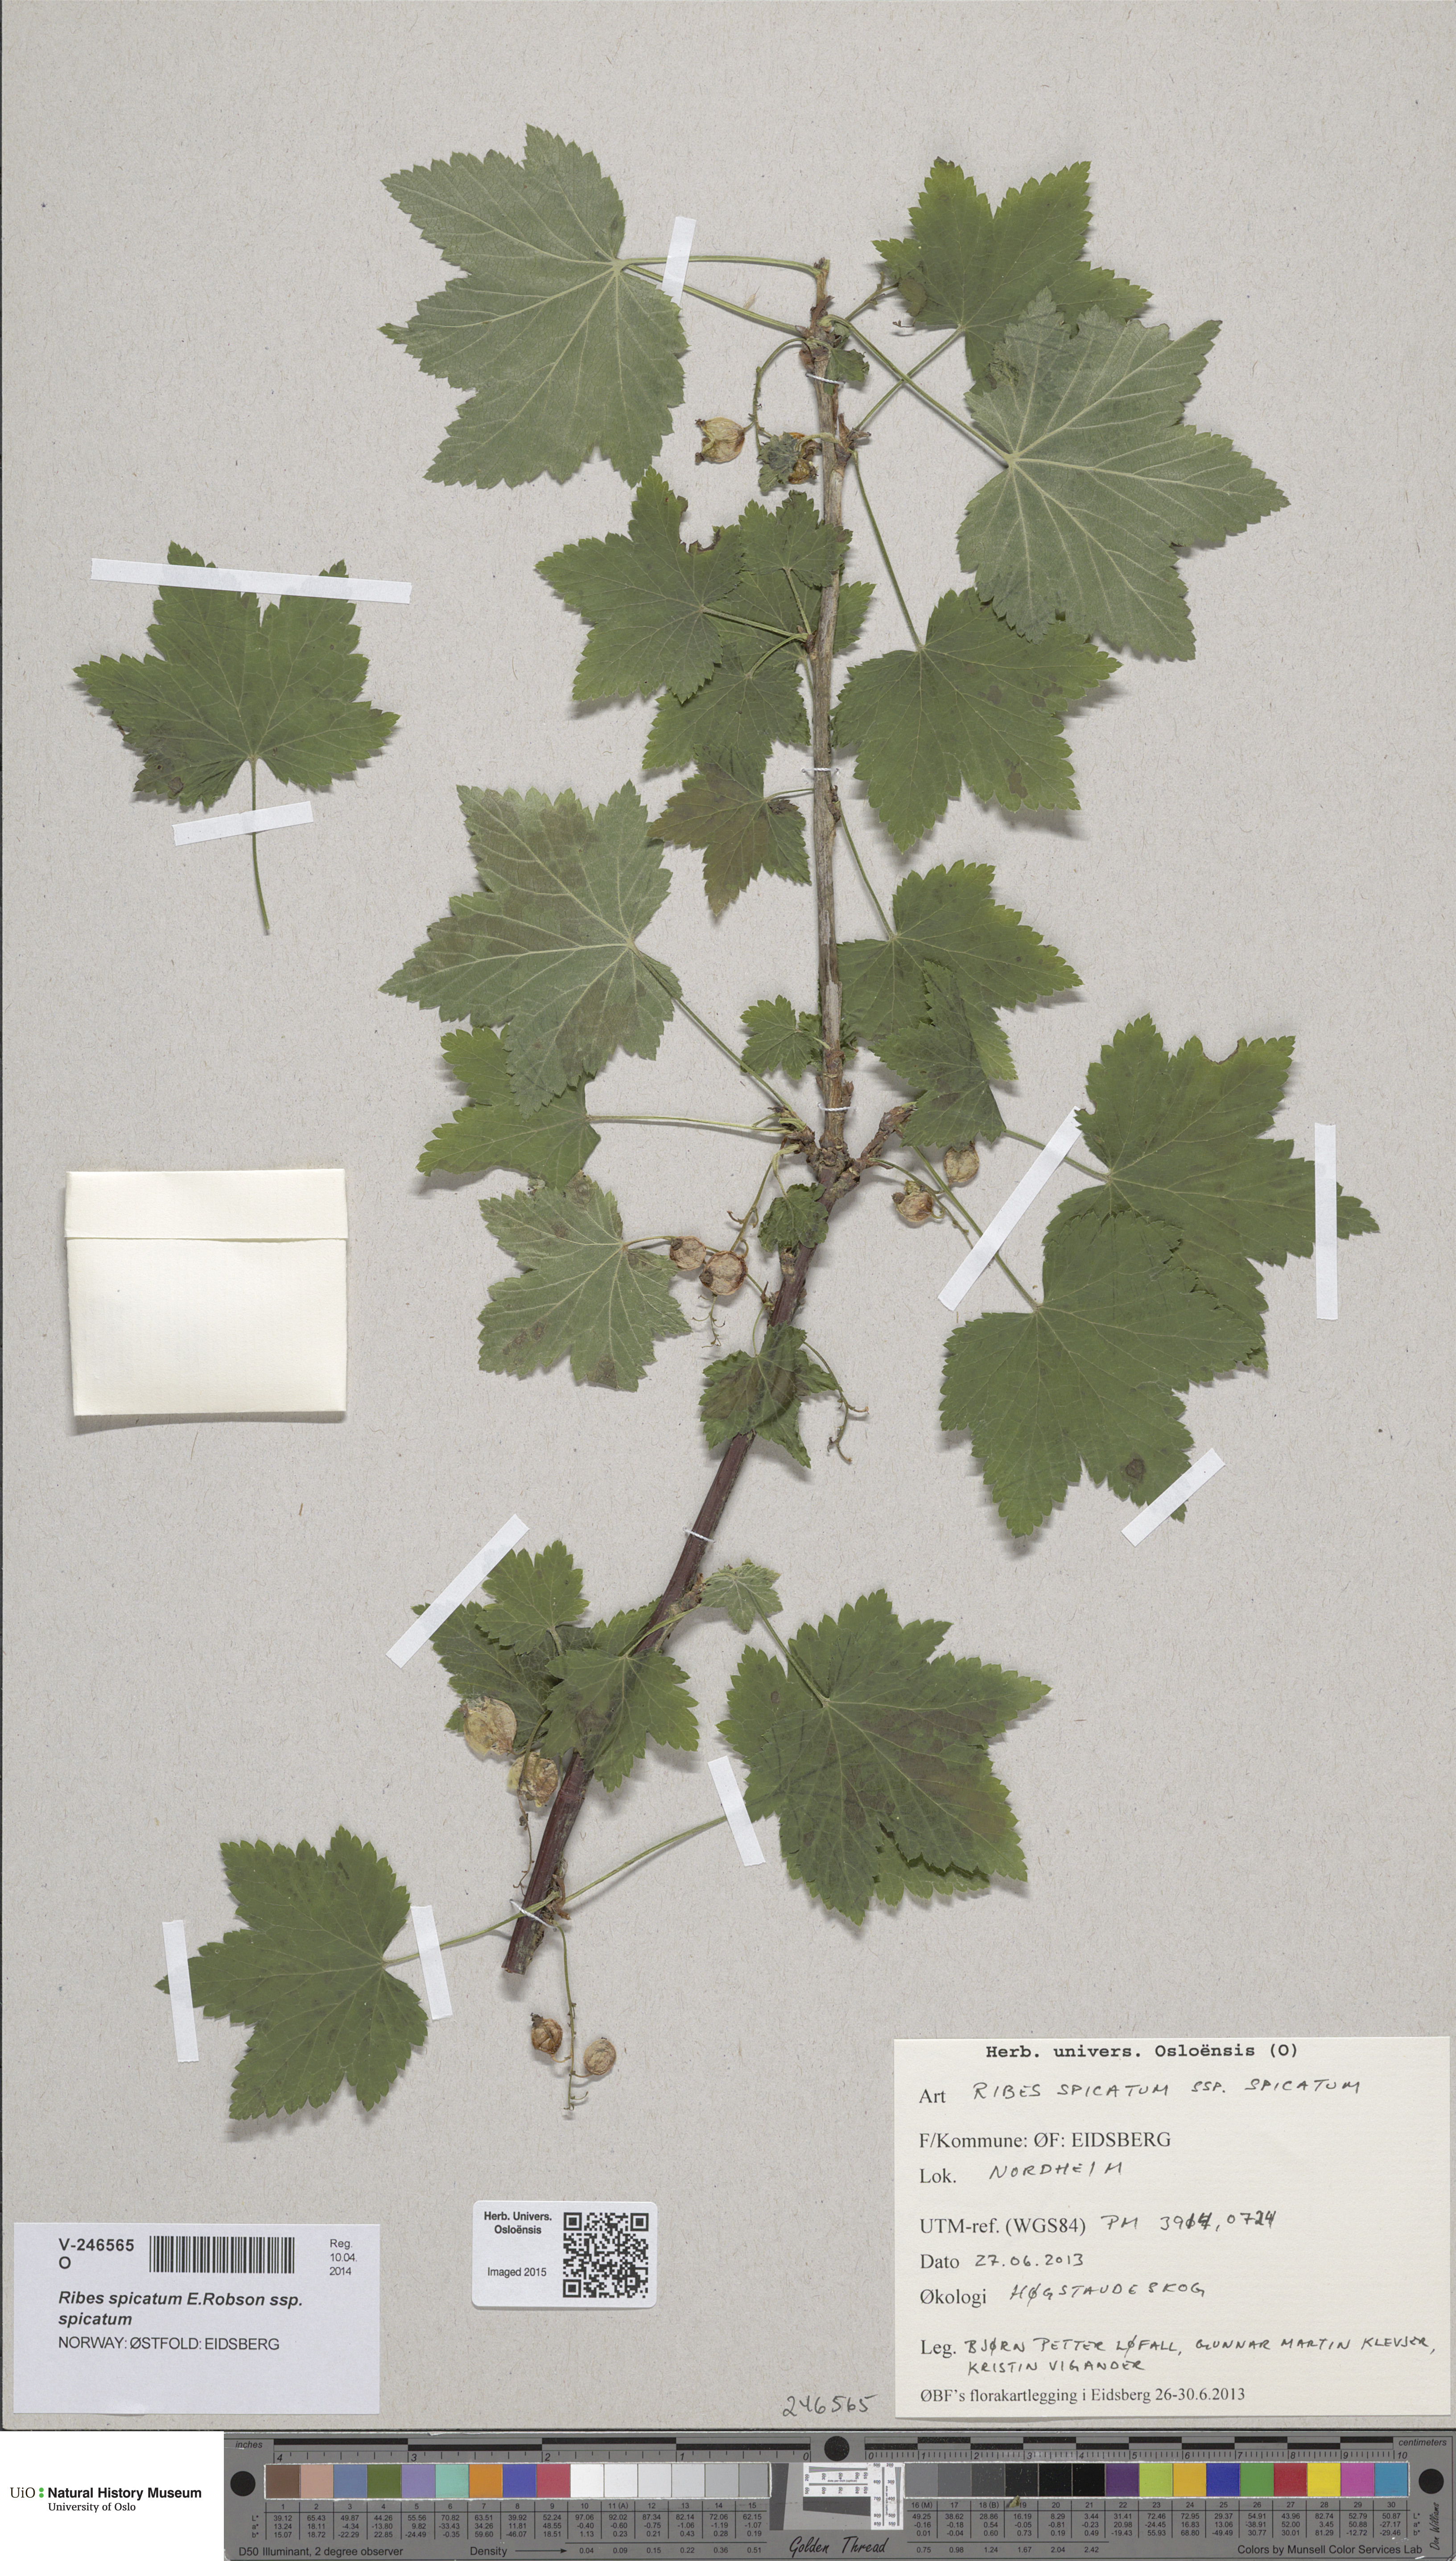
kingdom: Plantae
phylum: Tracheophyta
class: Magnoliopsida
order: Saxifragales
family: Grossulariaceae
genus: Ribes
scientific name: Ribes spicatum
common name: Downy currant
